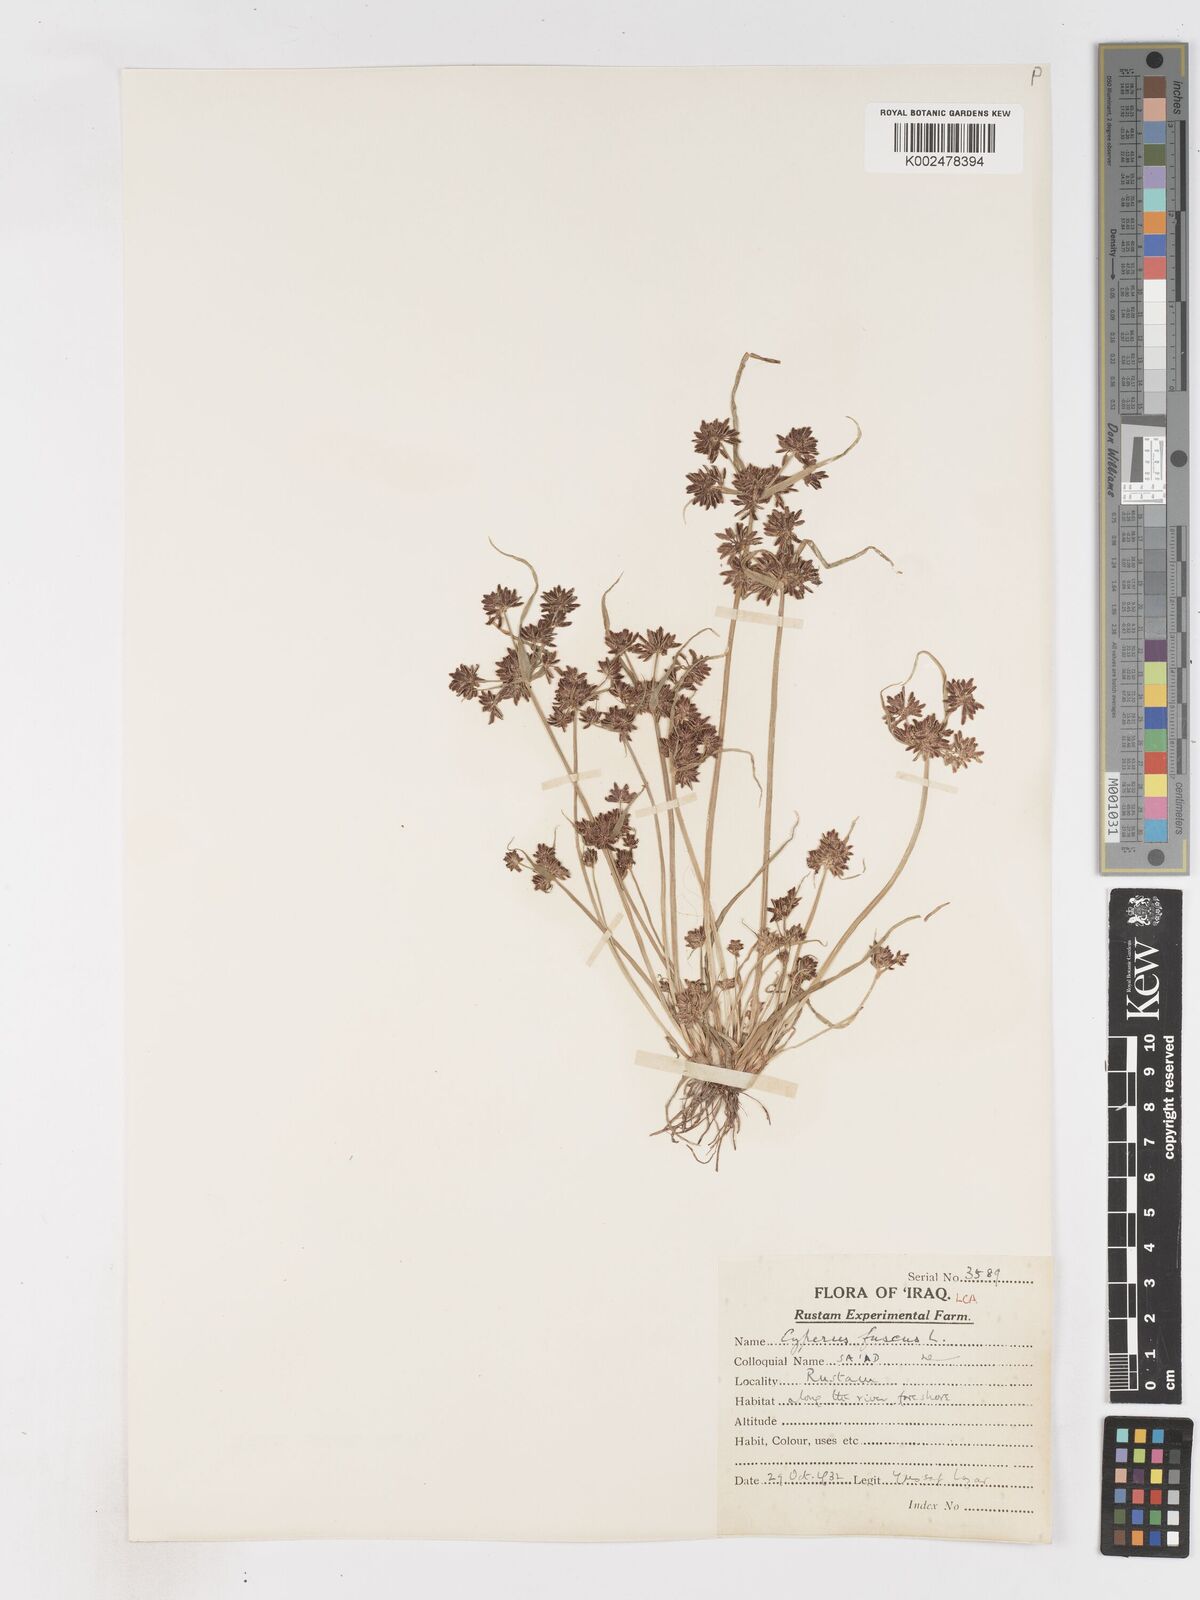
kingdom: Plantae
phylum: Tracheophyta
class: Liliopsida
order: Poales
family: Cyperaceae
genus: Cyperus
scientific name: Cyperus fuscus
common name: Brown galingale
